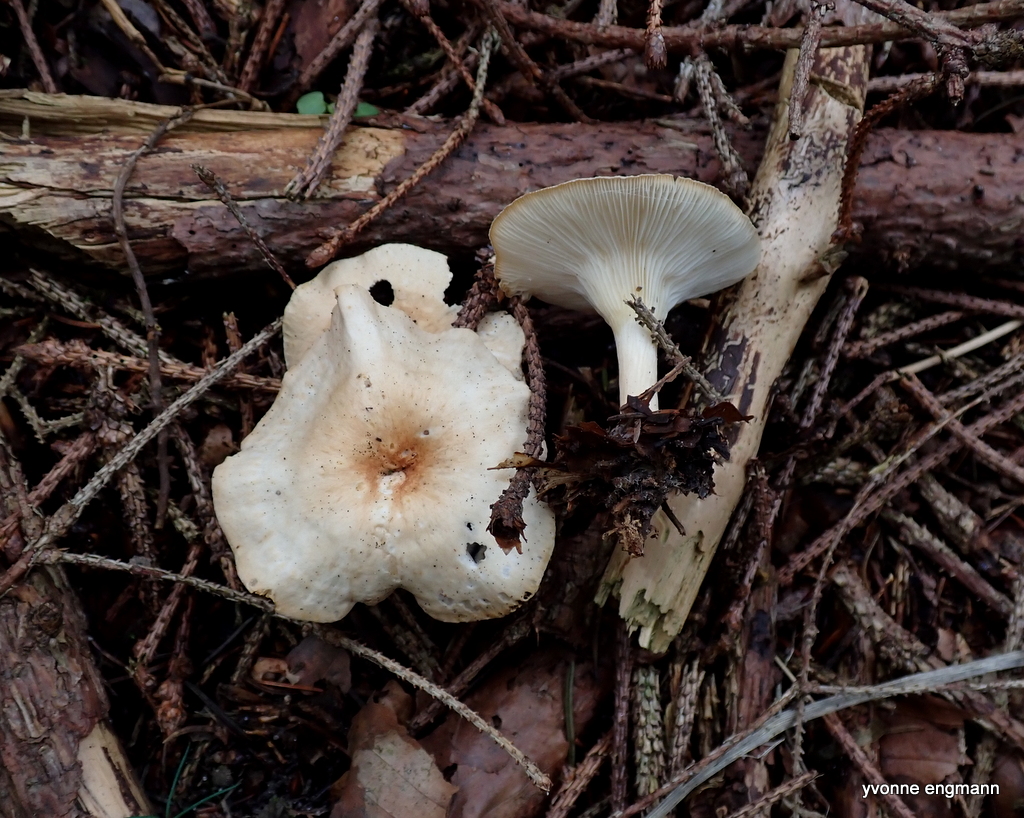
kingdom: Fungi
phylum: Basidiomycota
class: Agaricomycetes
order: Agaricales
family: Tricholomataceae
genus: Infundibulicybe
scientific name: Infundibulicybe gibba
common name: almindelig tragthat
